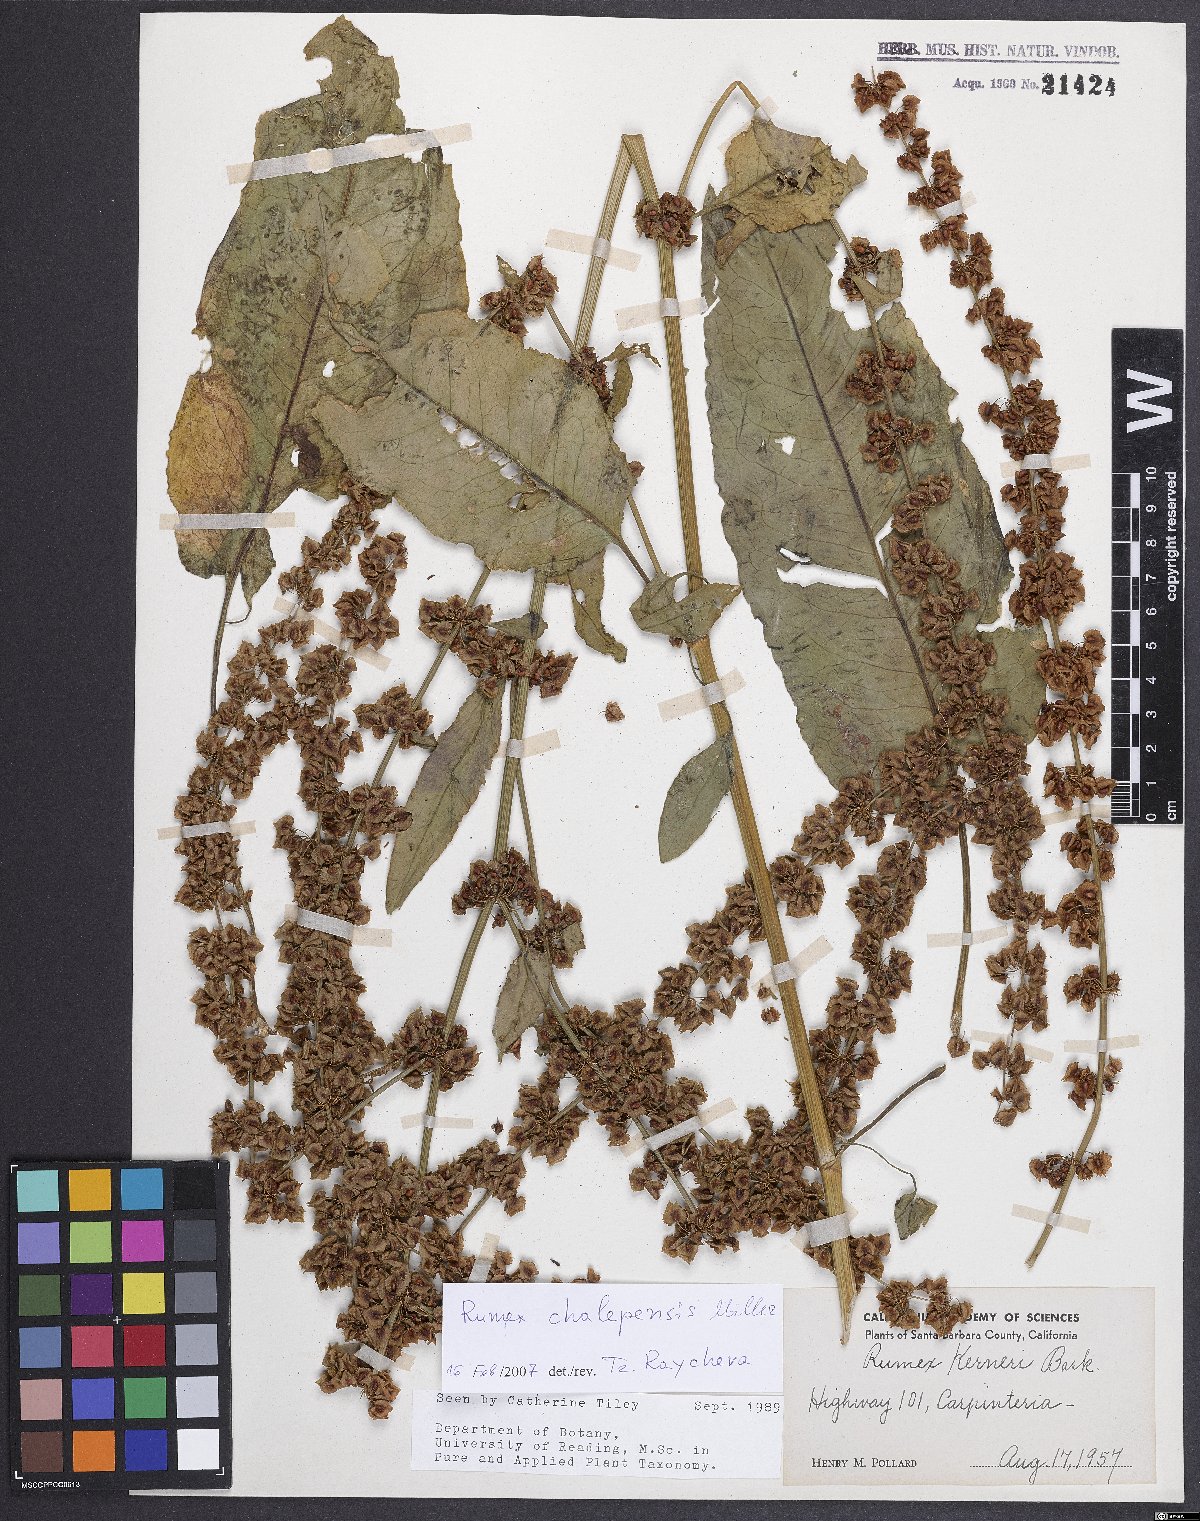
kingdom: Plantae
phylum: Tracheophyta
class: Magnoliopsida
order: Caryophyllales
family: Polygonaceae
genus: Rumex
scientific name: Rumex chalepensis
